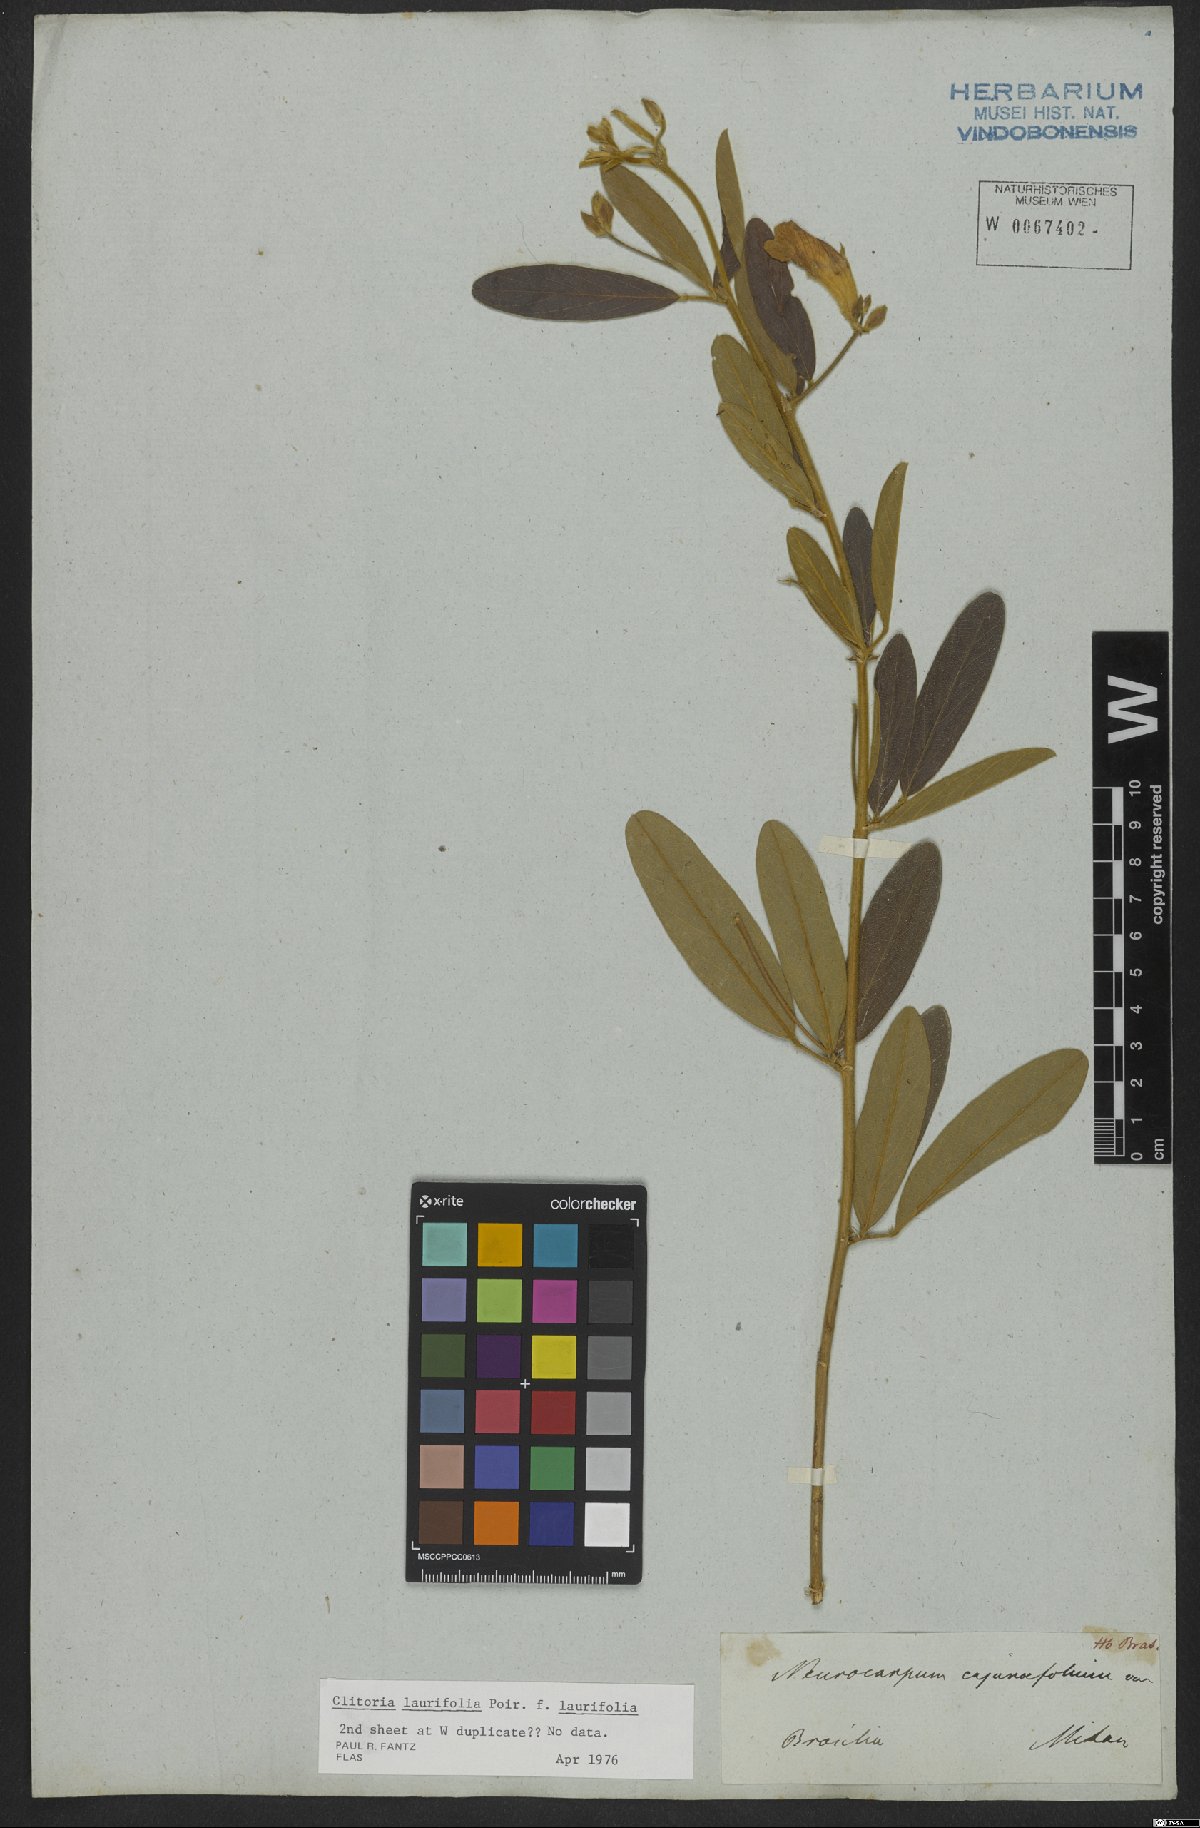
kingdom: Plantae
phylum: Tracheophyta
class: Magnoliopsida
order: Fabales
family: Fabaceae
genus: Clitoria
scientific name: Clitoria laurifolia
